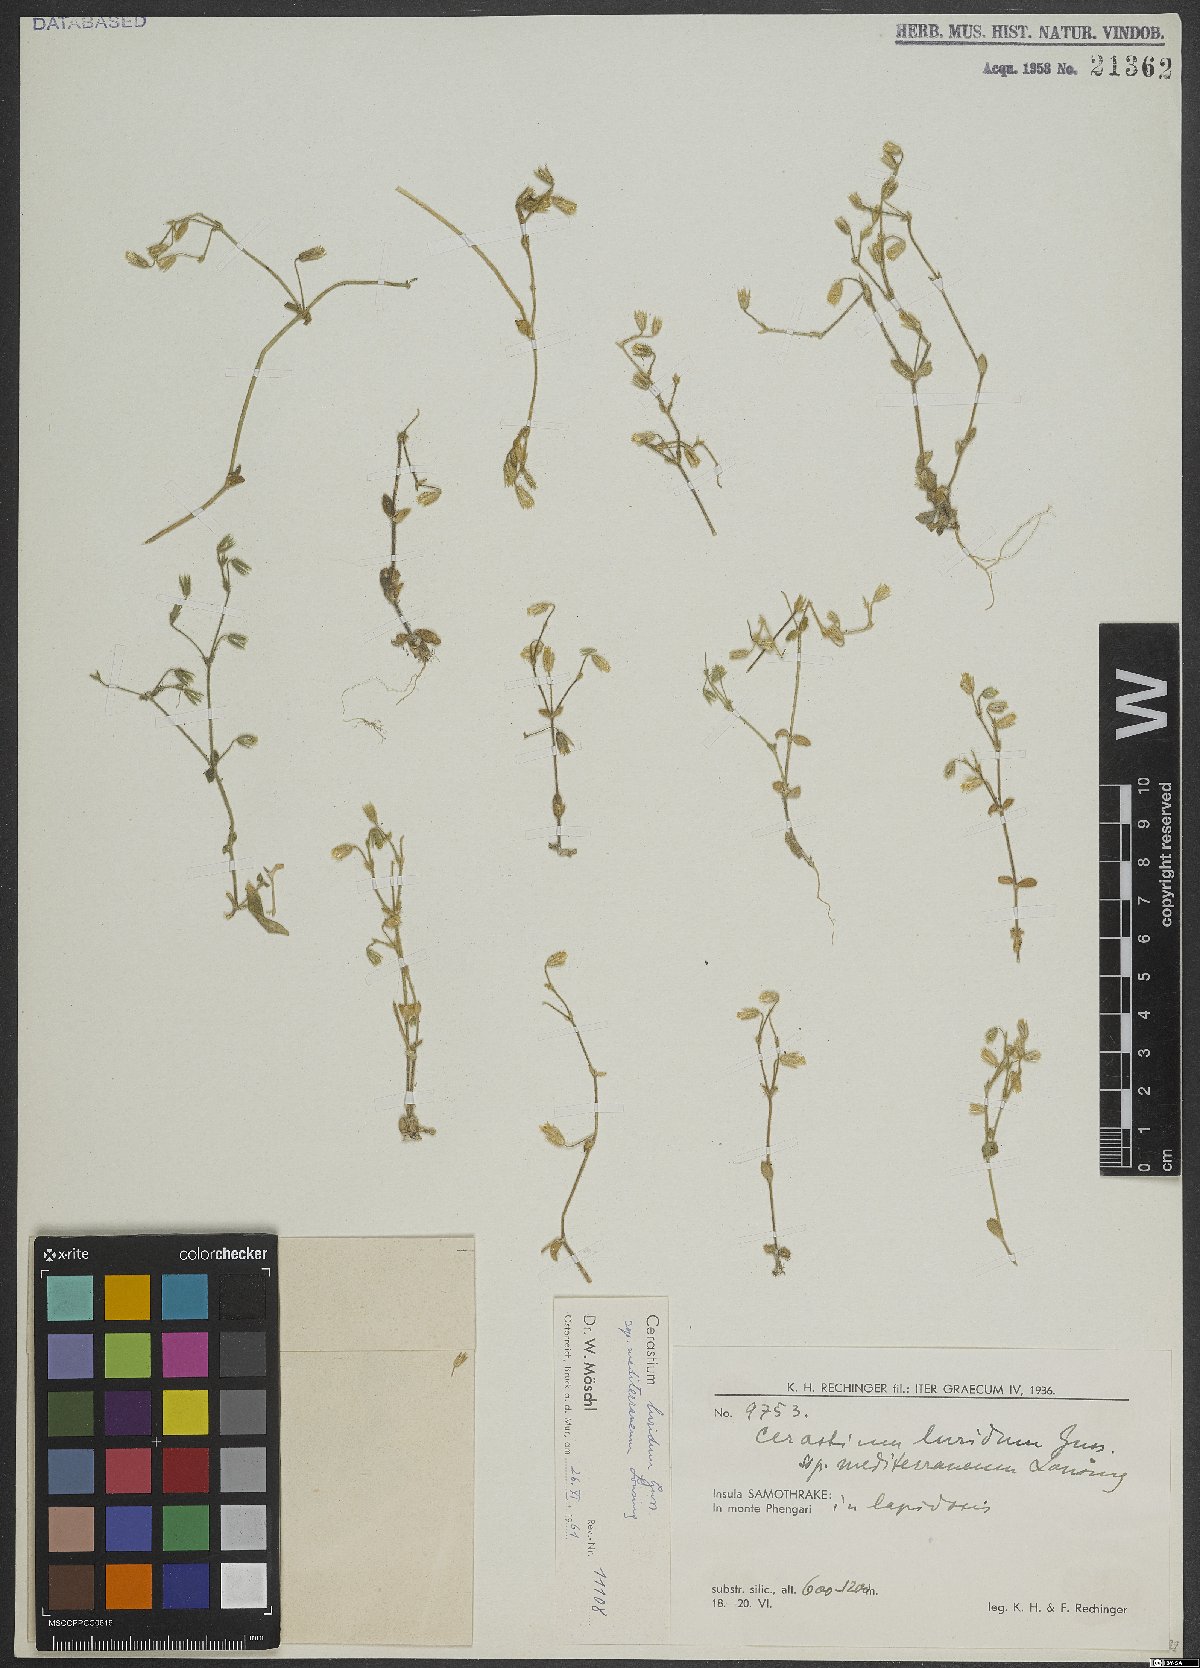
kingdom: Plantae
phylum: Tracheophyta
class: Magnoliopsida
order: Caryophyllales
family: Caryophyllaceae
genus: Cerastium
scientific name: Cerastium brachypetalum
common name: Grey mouse-ear
